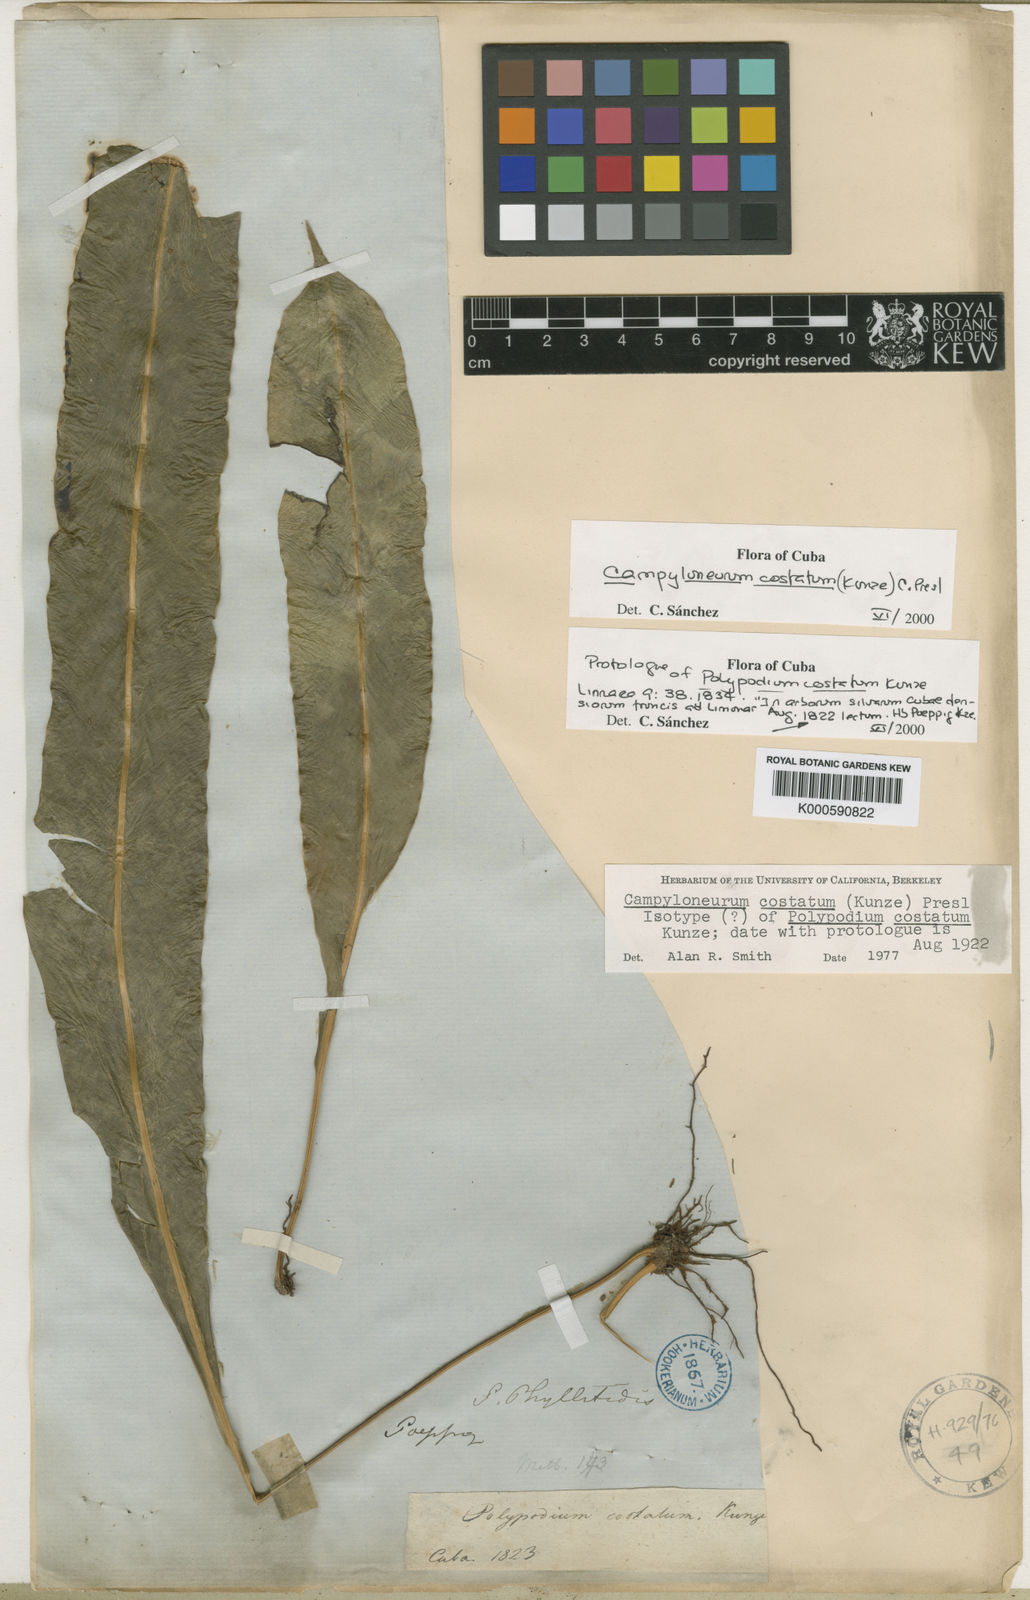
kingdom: Plantae
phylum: Tracheophyta
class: Polypodiopsida
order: Polypodiales
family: Polypodiaceae
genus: Campyloneurum
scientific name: Campyloneurum costatum
